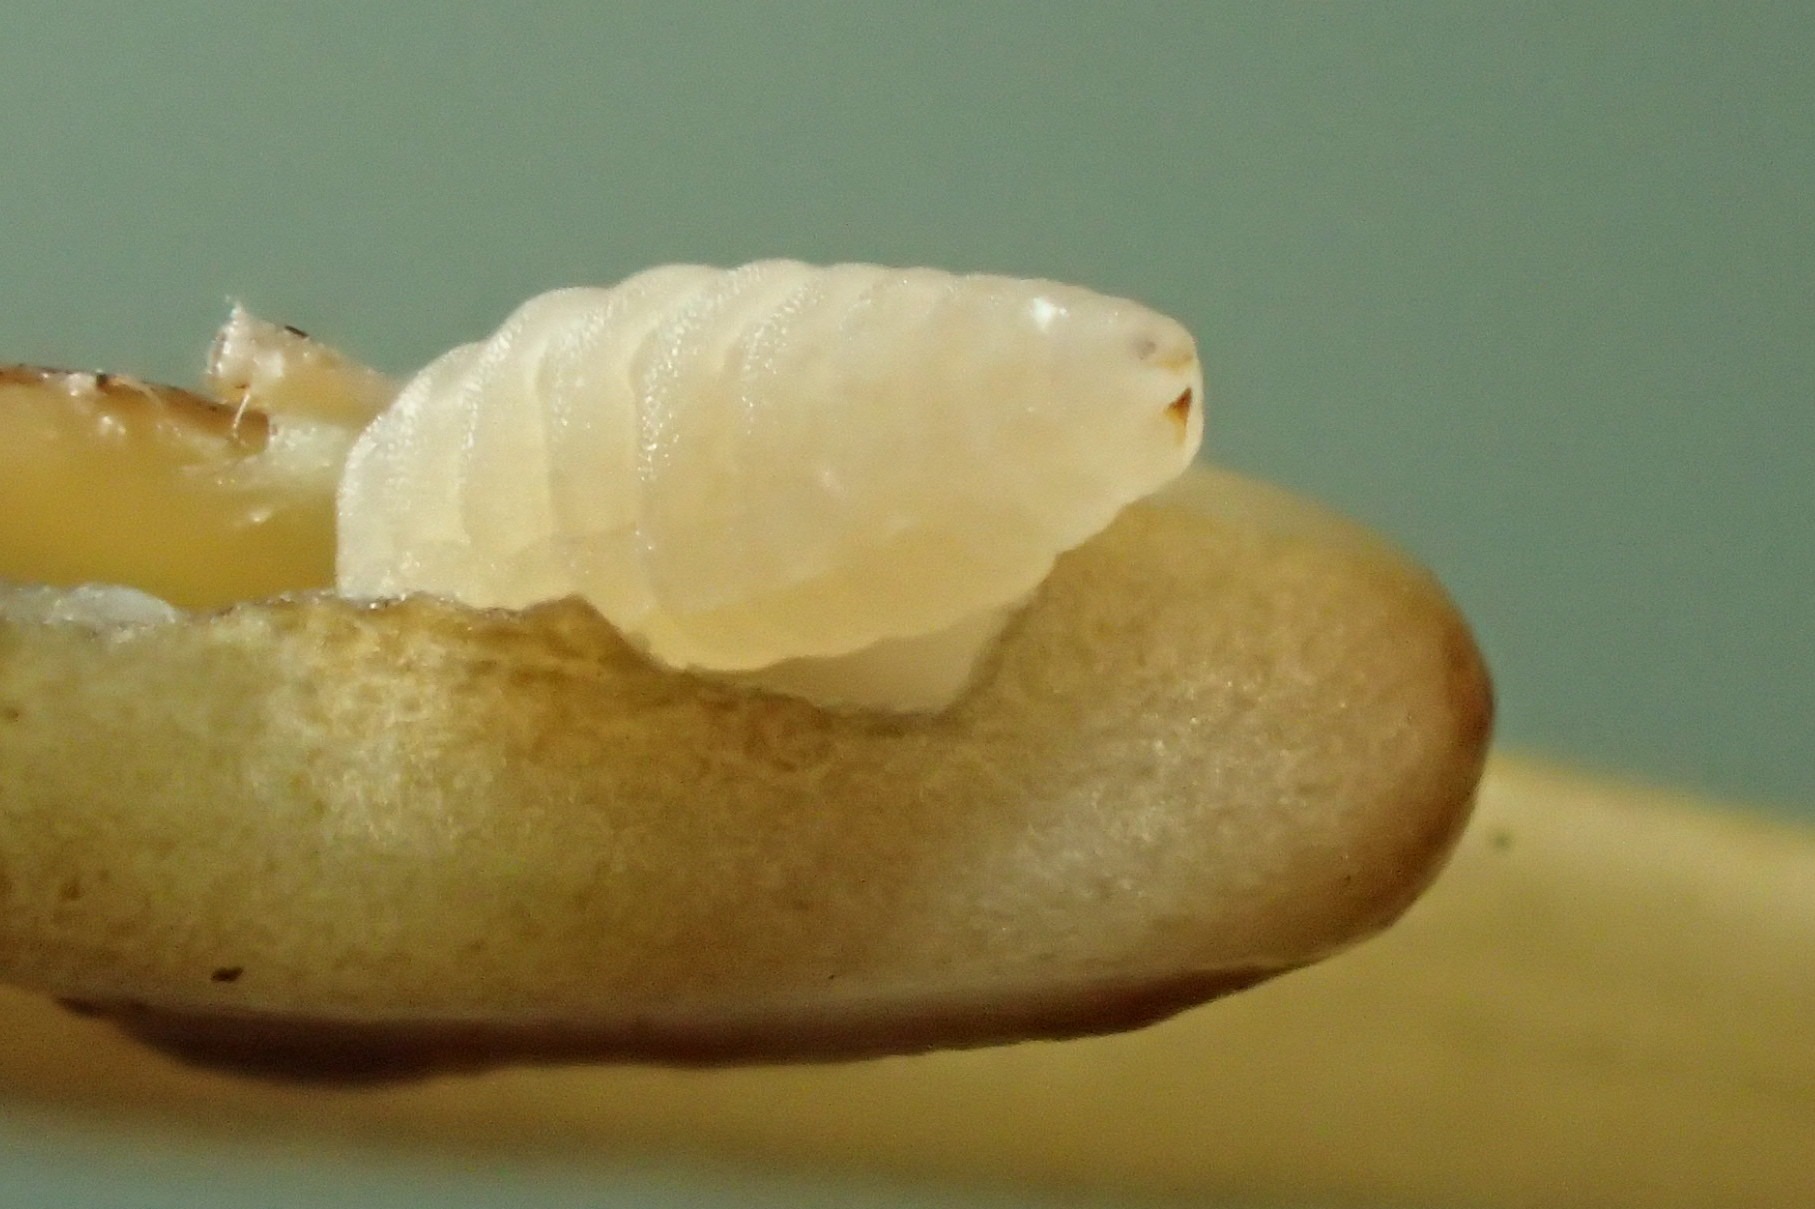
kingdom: Animalia
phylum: Arthropoda
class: Insecta
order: Diptera
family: Cecidomyiidae
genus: Planetella
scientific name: Planetella gallarum
